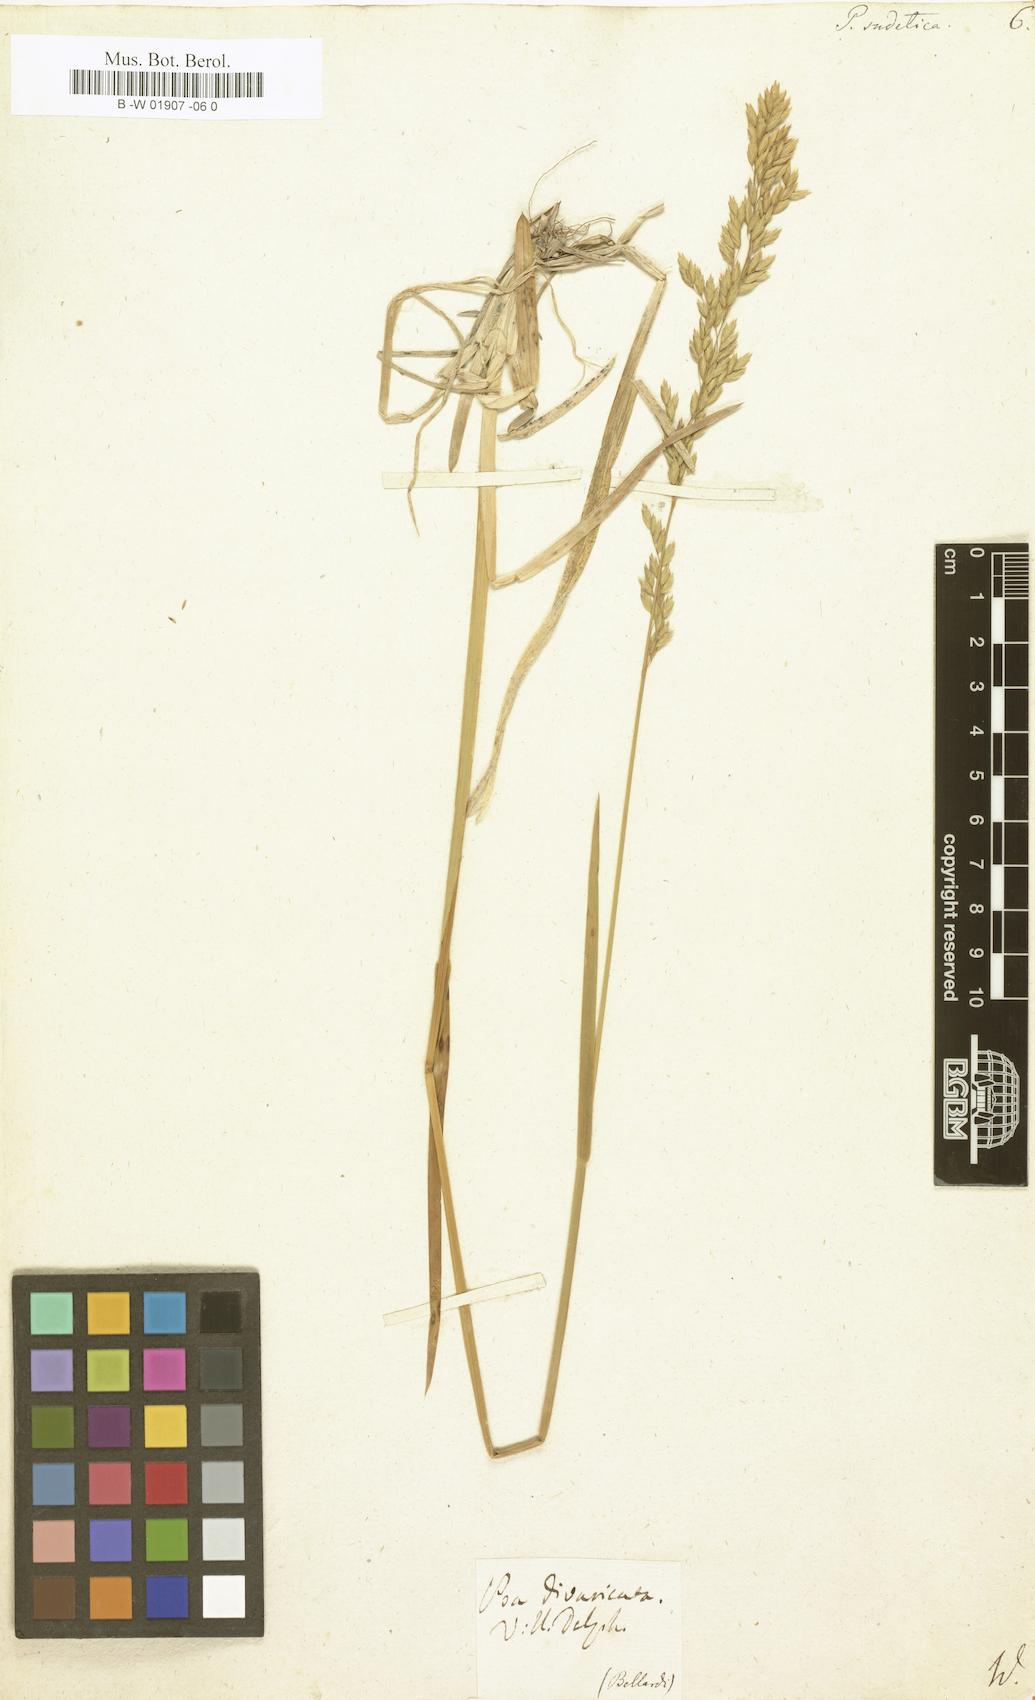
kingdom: Plantae
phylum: Tracheophyta
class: Liliopsida
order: Poales
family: Poaceae
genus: Poa
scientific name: Poa chaixii
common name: Broad-leaved meadow-grass
